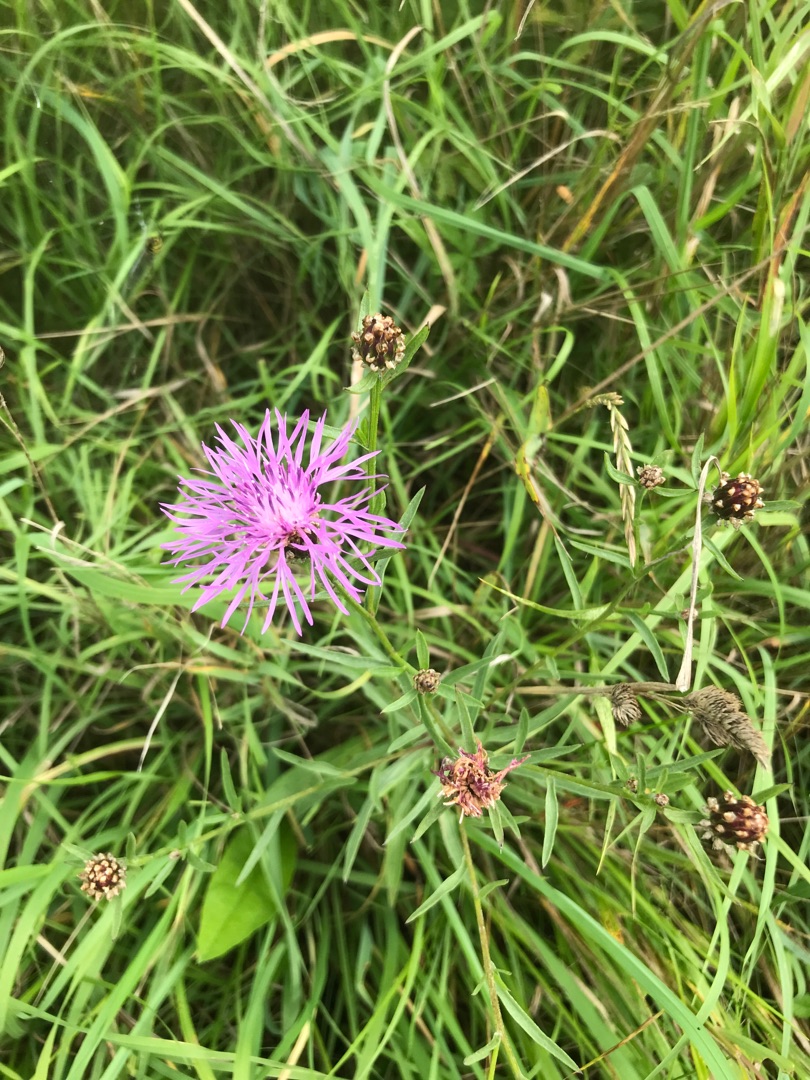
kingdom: Plantae
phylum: Tracheophyta
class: Magnoliopsida
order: Asterales
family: Asteraceae
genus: Centaurea
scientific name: Centaurea jacea
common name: Almindelig knopurt
